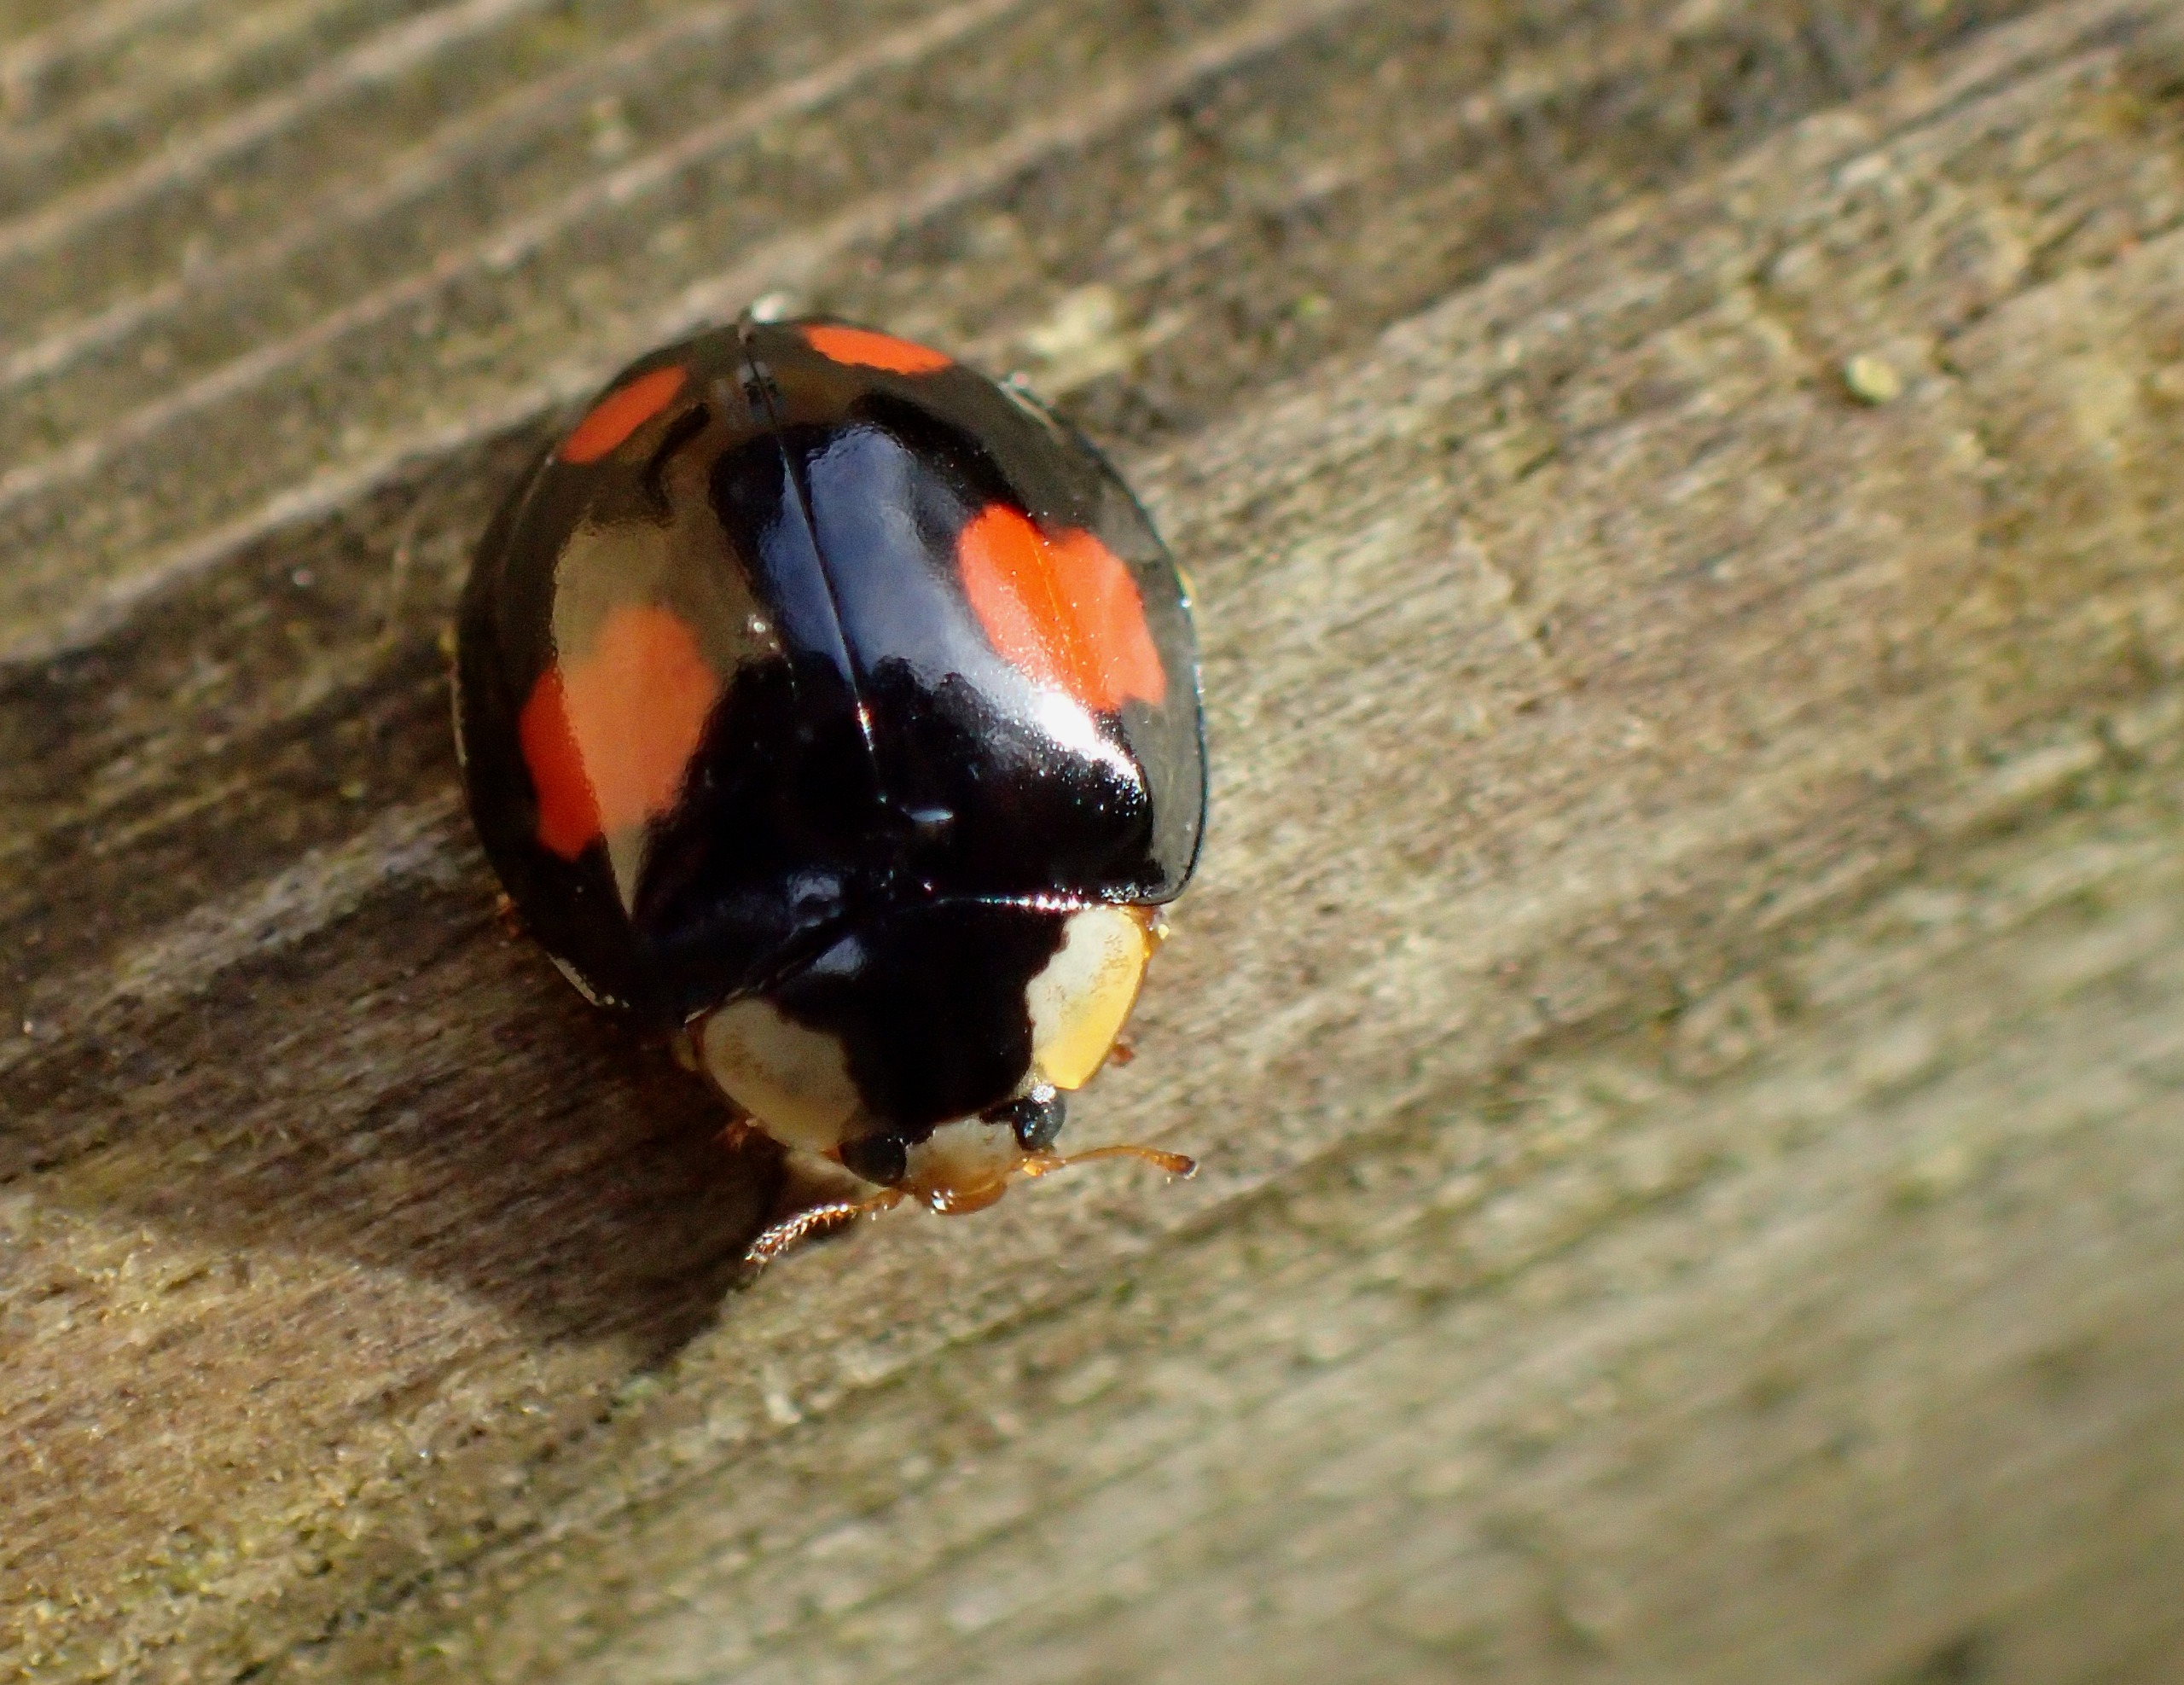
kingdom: Animalia
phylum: Arthropoda
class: Insecta
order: Coleoptera
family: Coccinellidae
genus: Harmonia
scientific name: Harmonia axyridis
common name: Harlekinmariehøne
